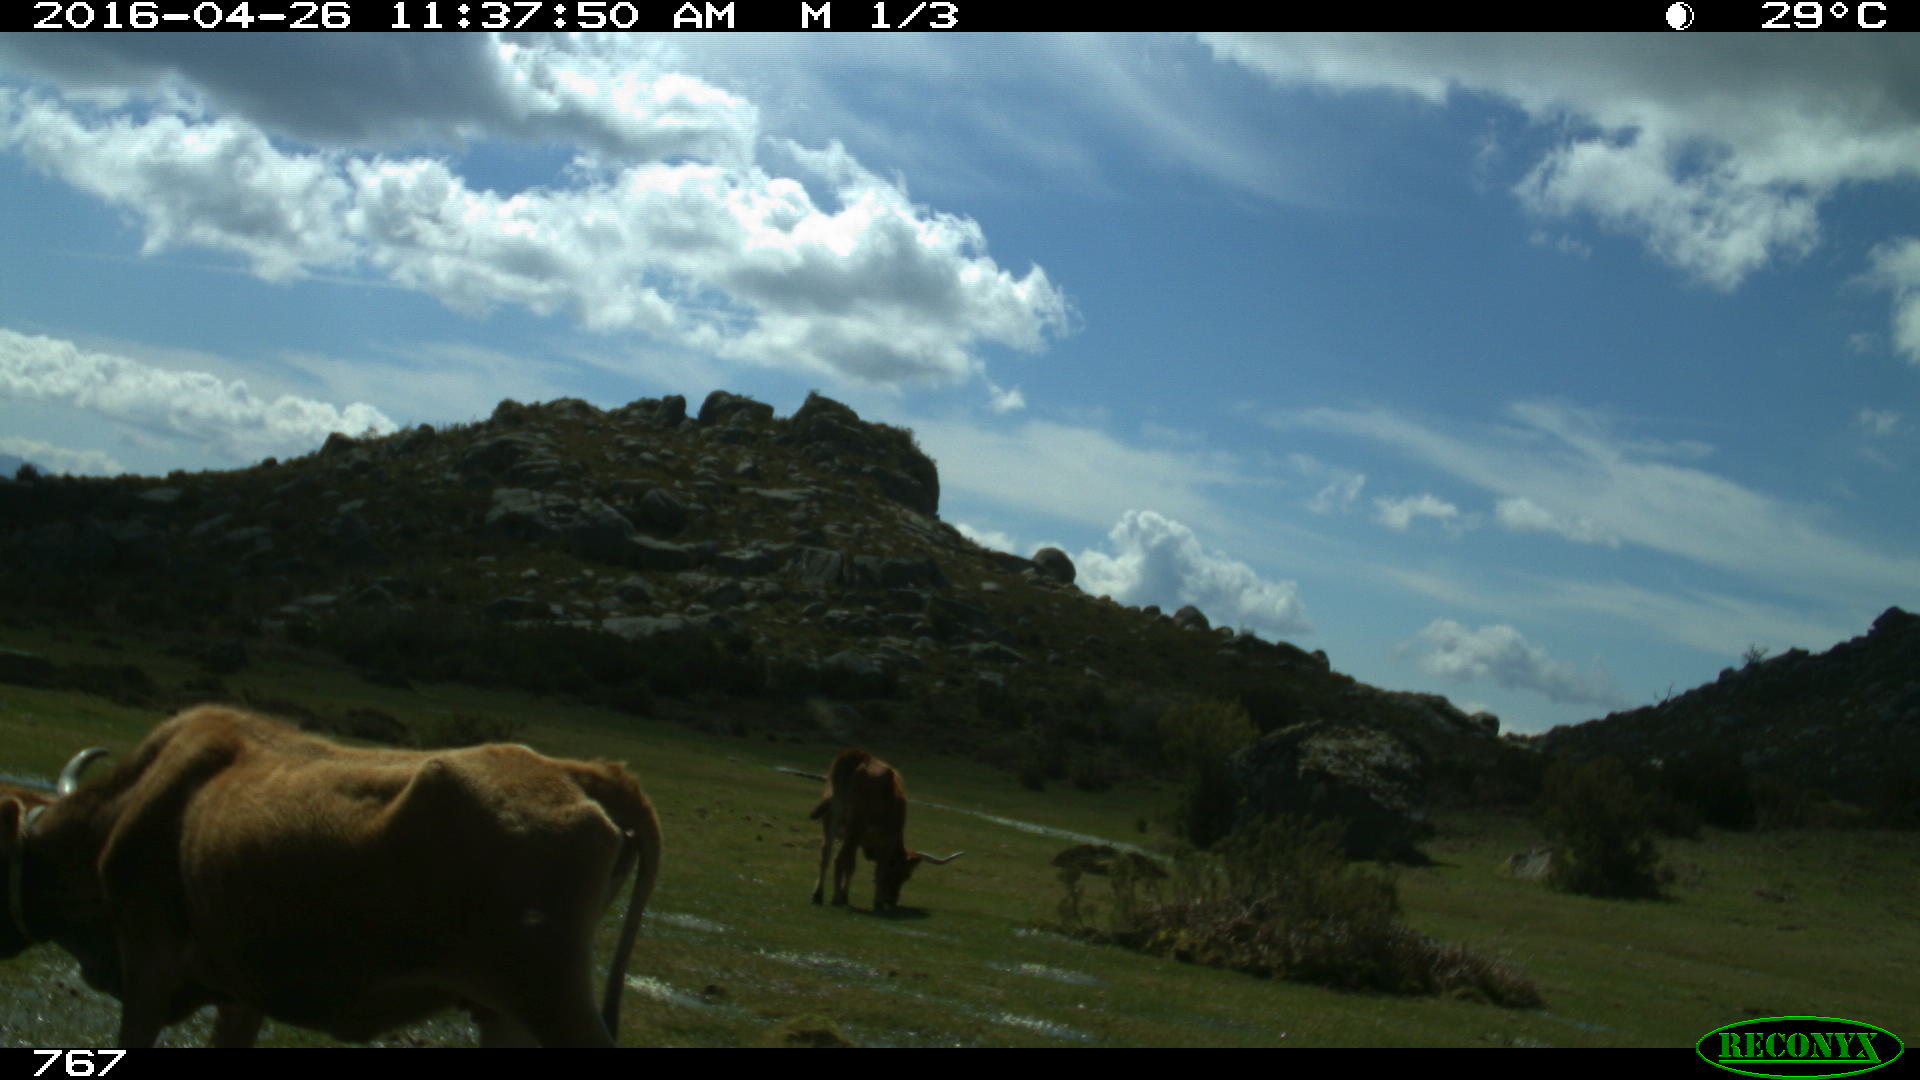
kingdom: Animalia
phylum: Chordata
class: Mammalia
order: Artiodactyla
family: Bovidae
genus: Bos
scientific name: Bos taurus
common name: Domesticated cattle
